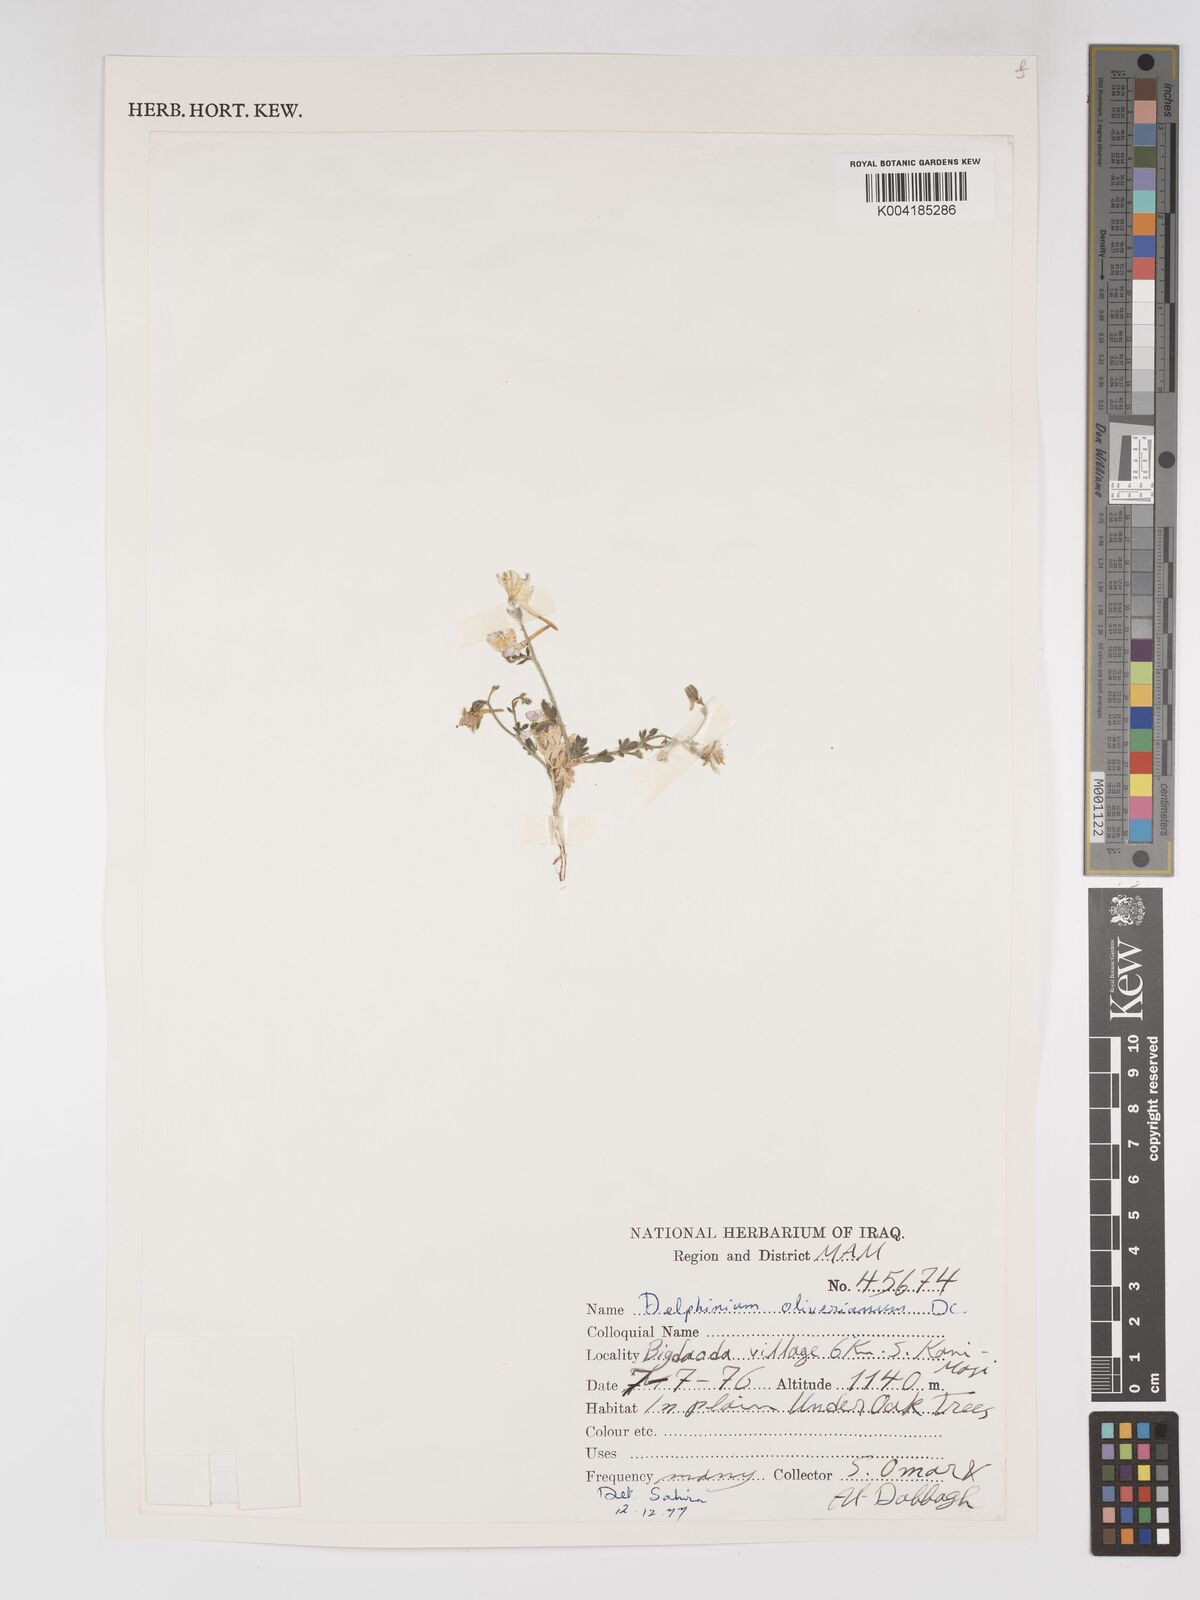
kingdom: Plantae
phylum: Tracheophyta
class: Magnoliopsida
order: Ranunculales
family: Ranunculaceae
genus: Delphinium
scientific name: Delphinium oliverianum
